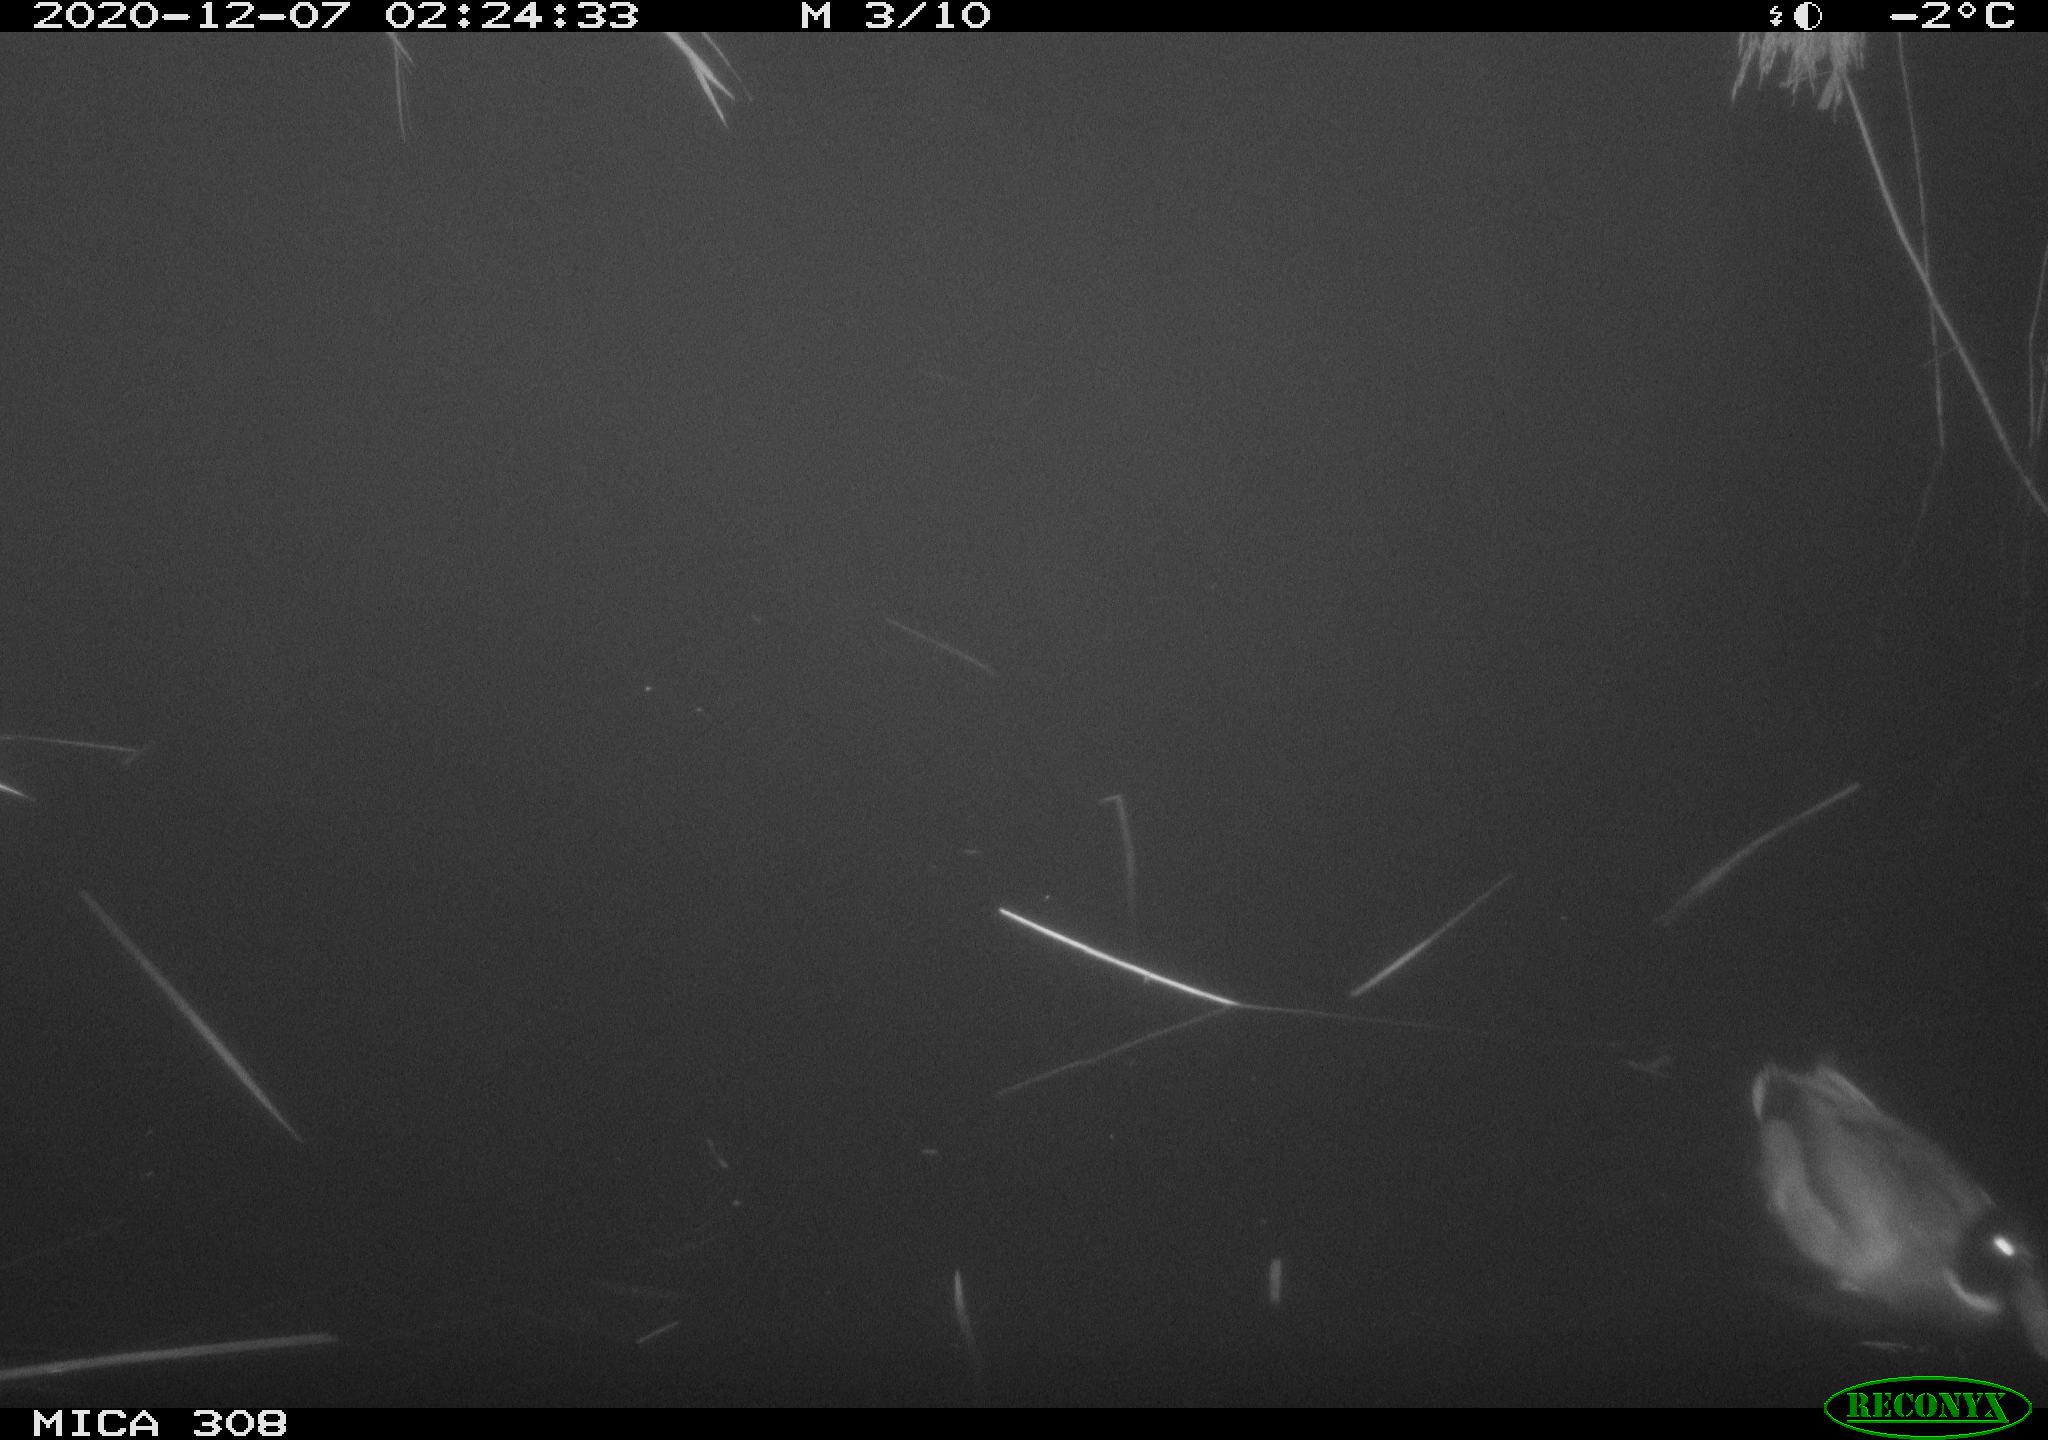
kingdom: Animalia
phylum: Chordata
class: Aves
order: Anseriformes
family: Anatidae
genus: Anas
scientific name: Anas platyrhynchos
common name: Mallard
